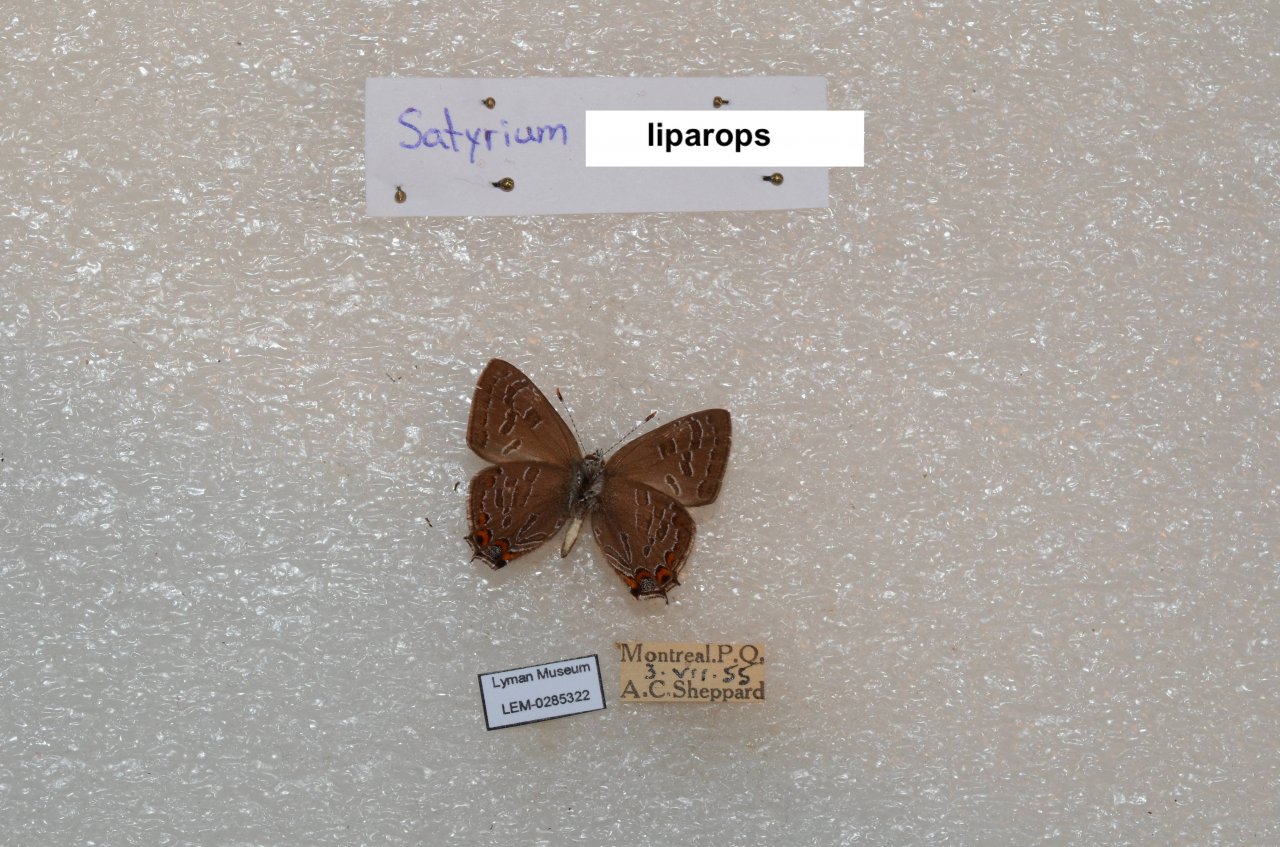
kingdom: Animalia
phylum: Arthropoda
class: Insecta
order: Lepidoptera
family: Lycaenidae
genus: Satyrium
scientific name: Satyrium liparops
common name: Striped Hairstreak
